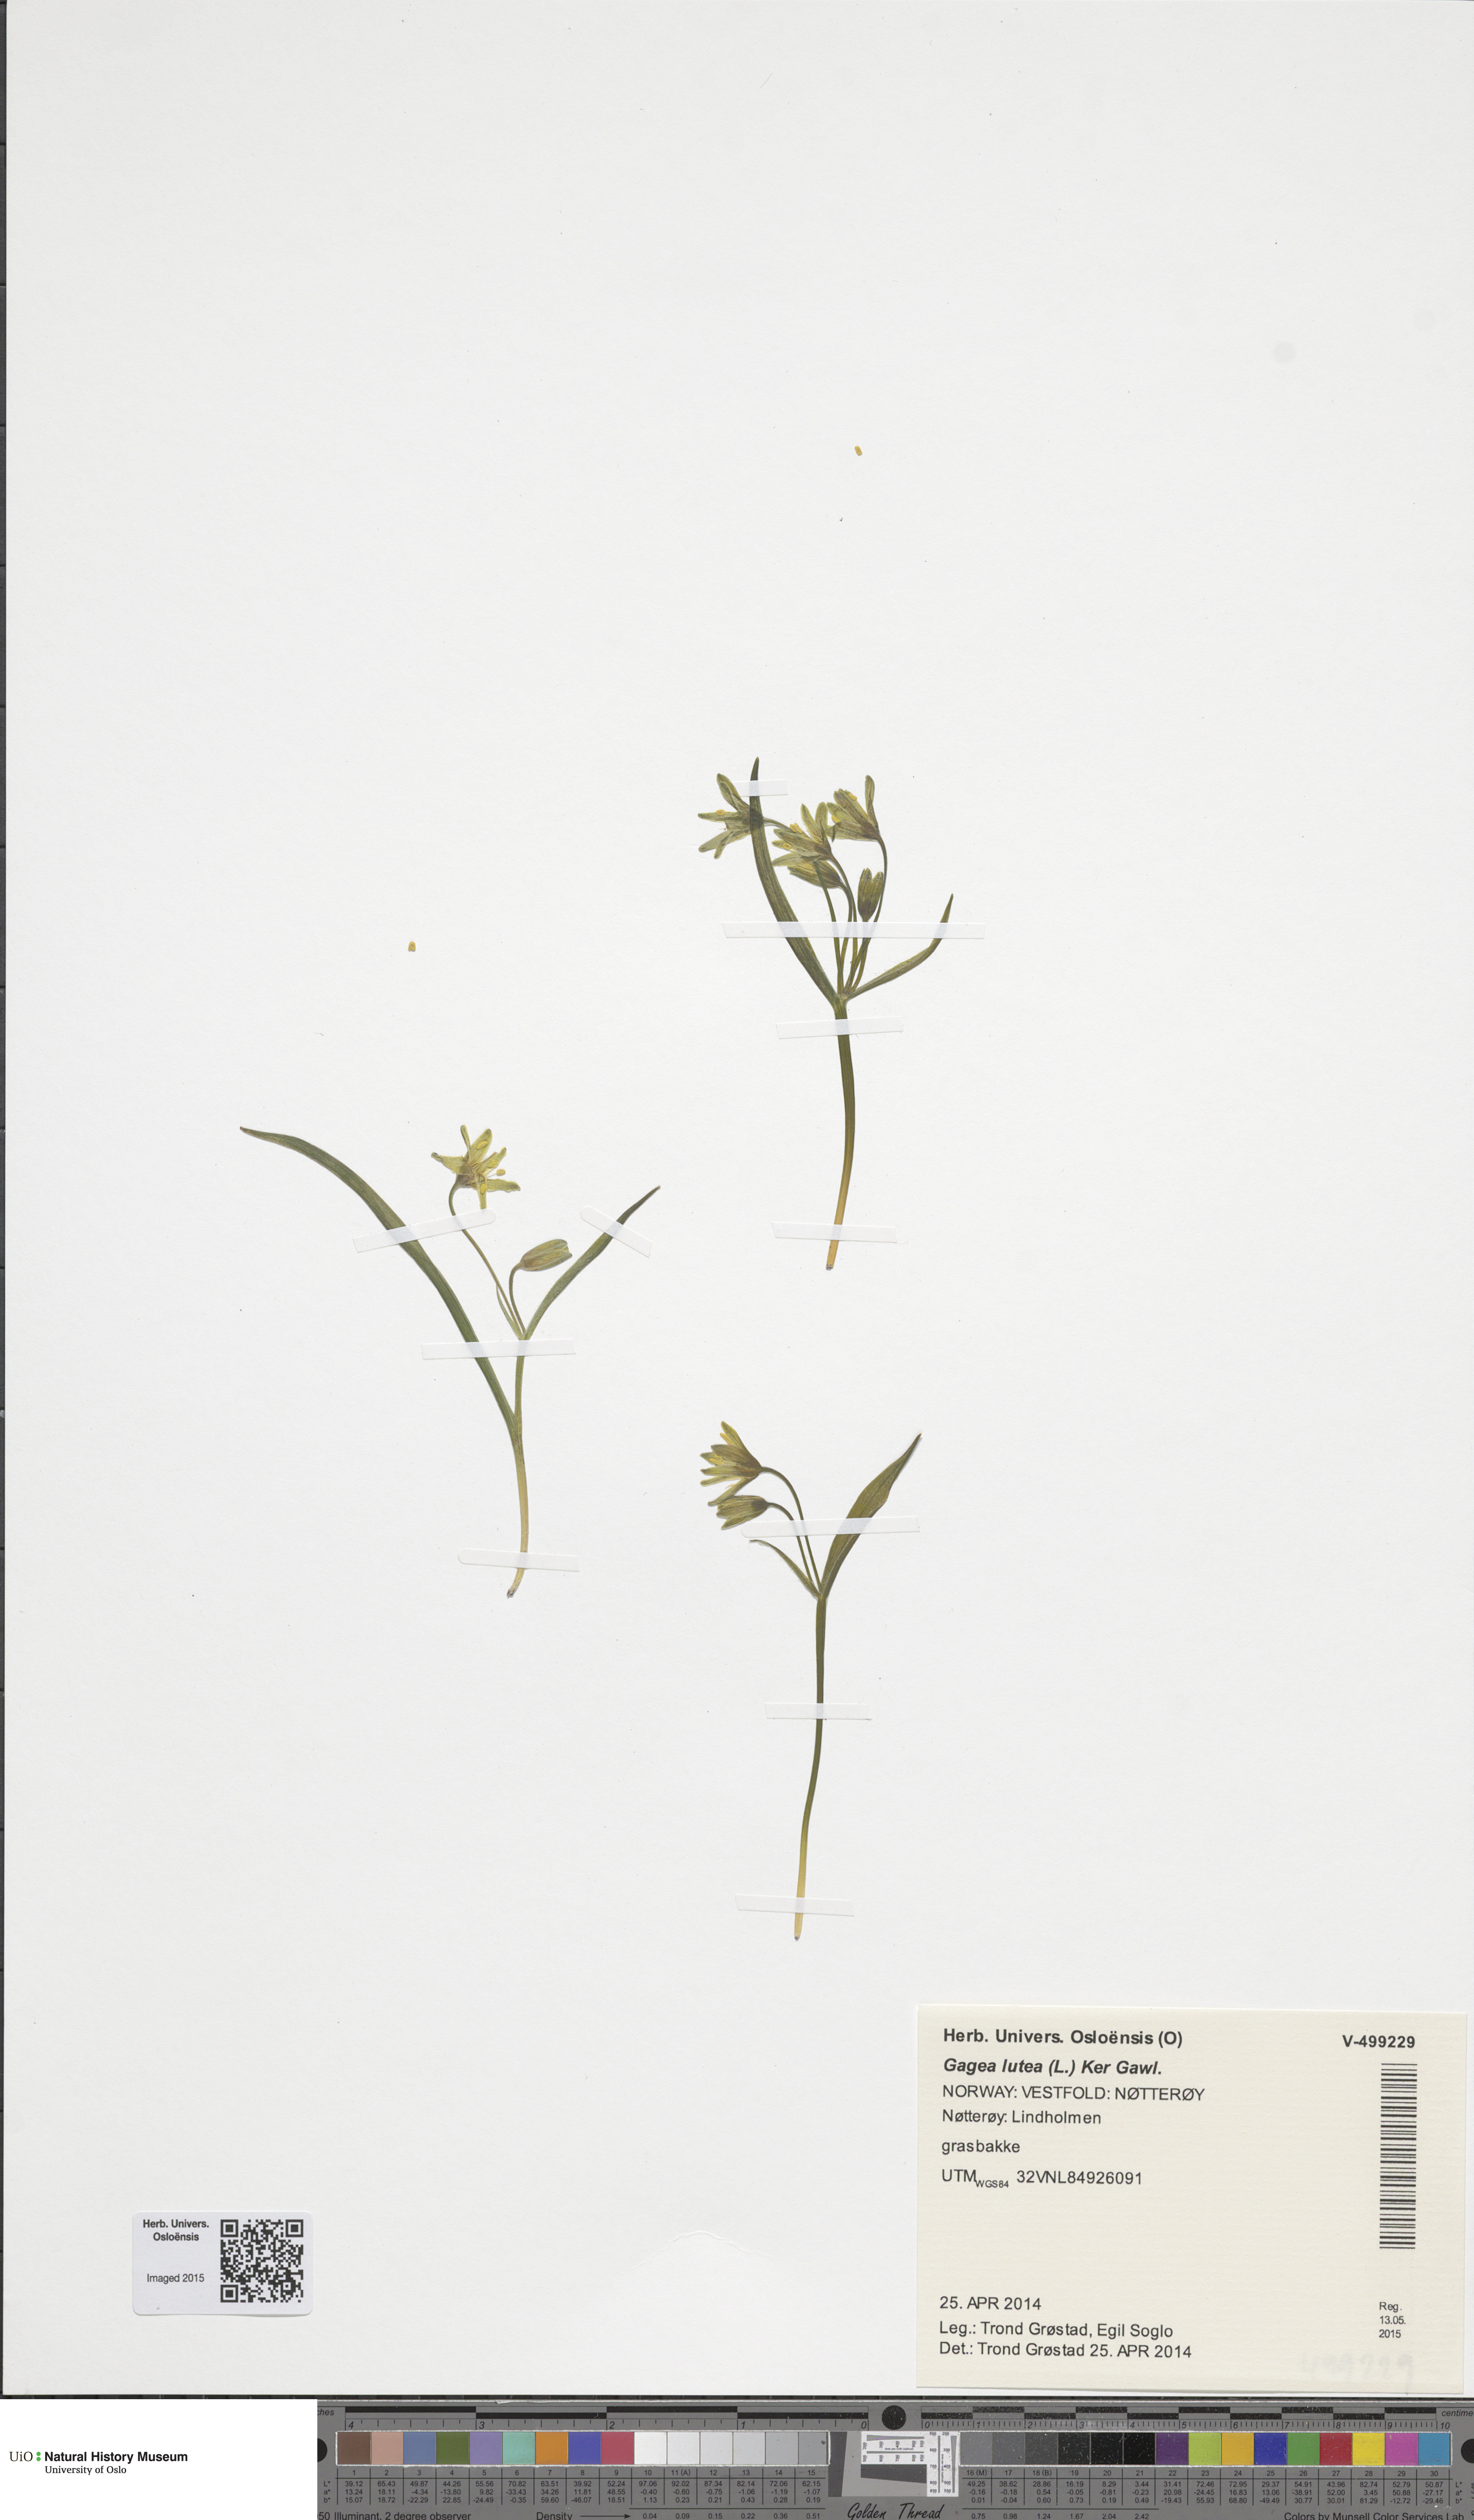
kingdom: Plantae
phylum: Tracheophyta
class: Liliopsida
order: Liliales
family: Liliaceae
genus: Gagea
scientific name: Gagea lutea
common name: Yellow star-of-bethlehem
